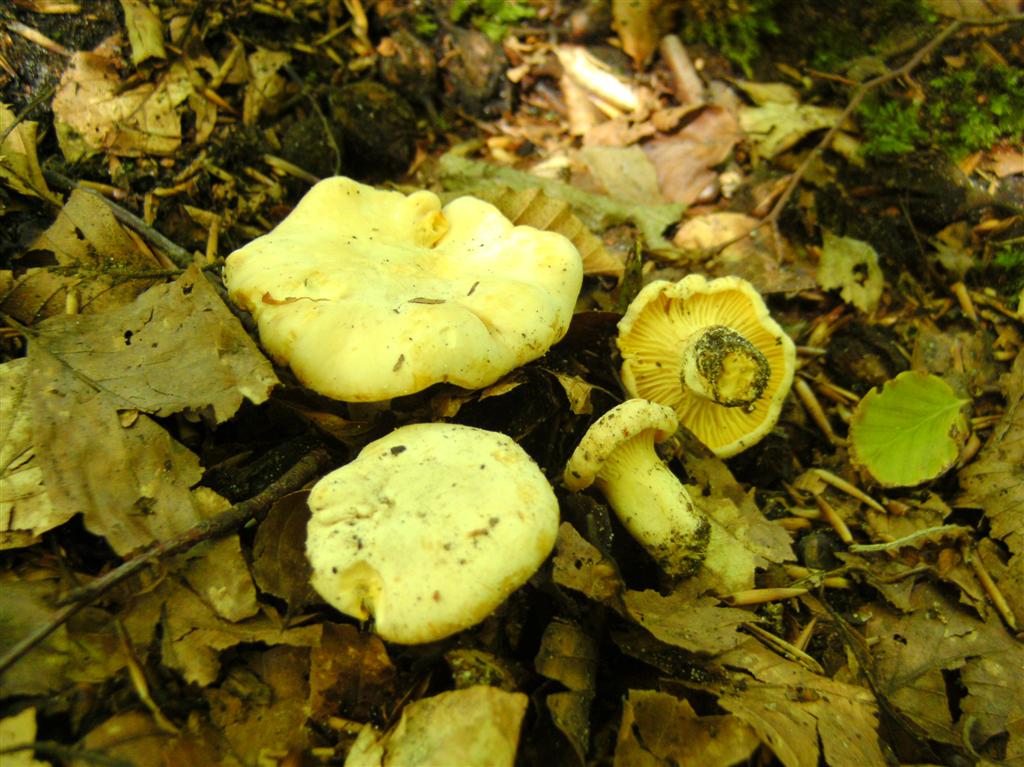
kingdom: Fungi
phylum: Basidiomycota
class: Agaricomycetes
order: Cantharellales
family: Hydnaceae
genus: Cantharellus
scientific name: Cantharellus pallens
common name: bleg kantarel
